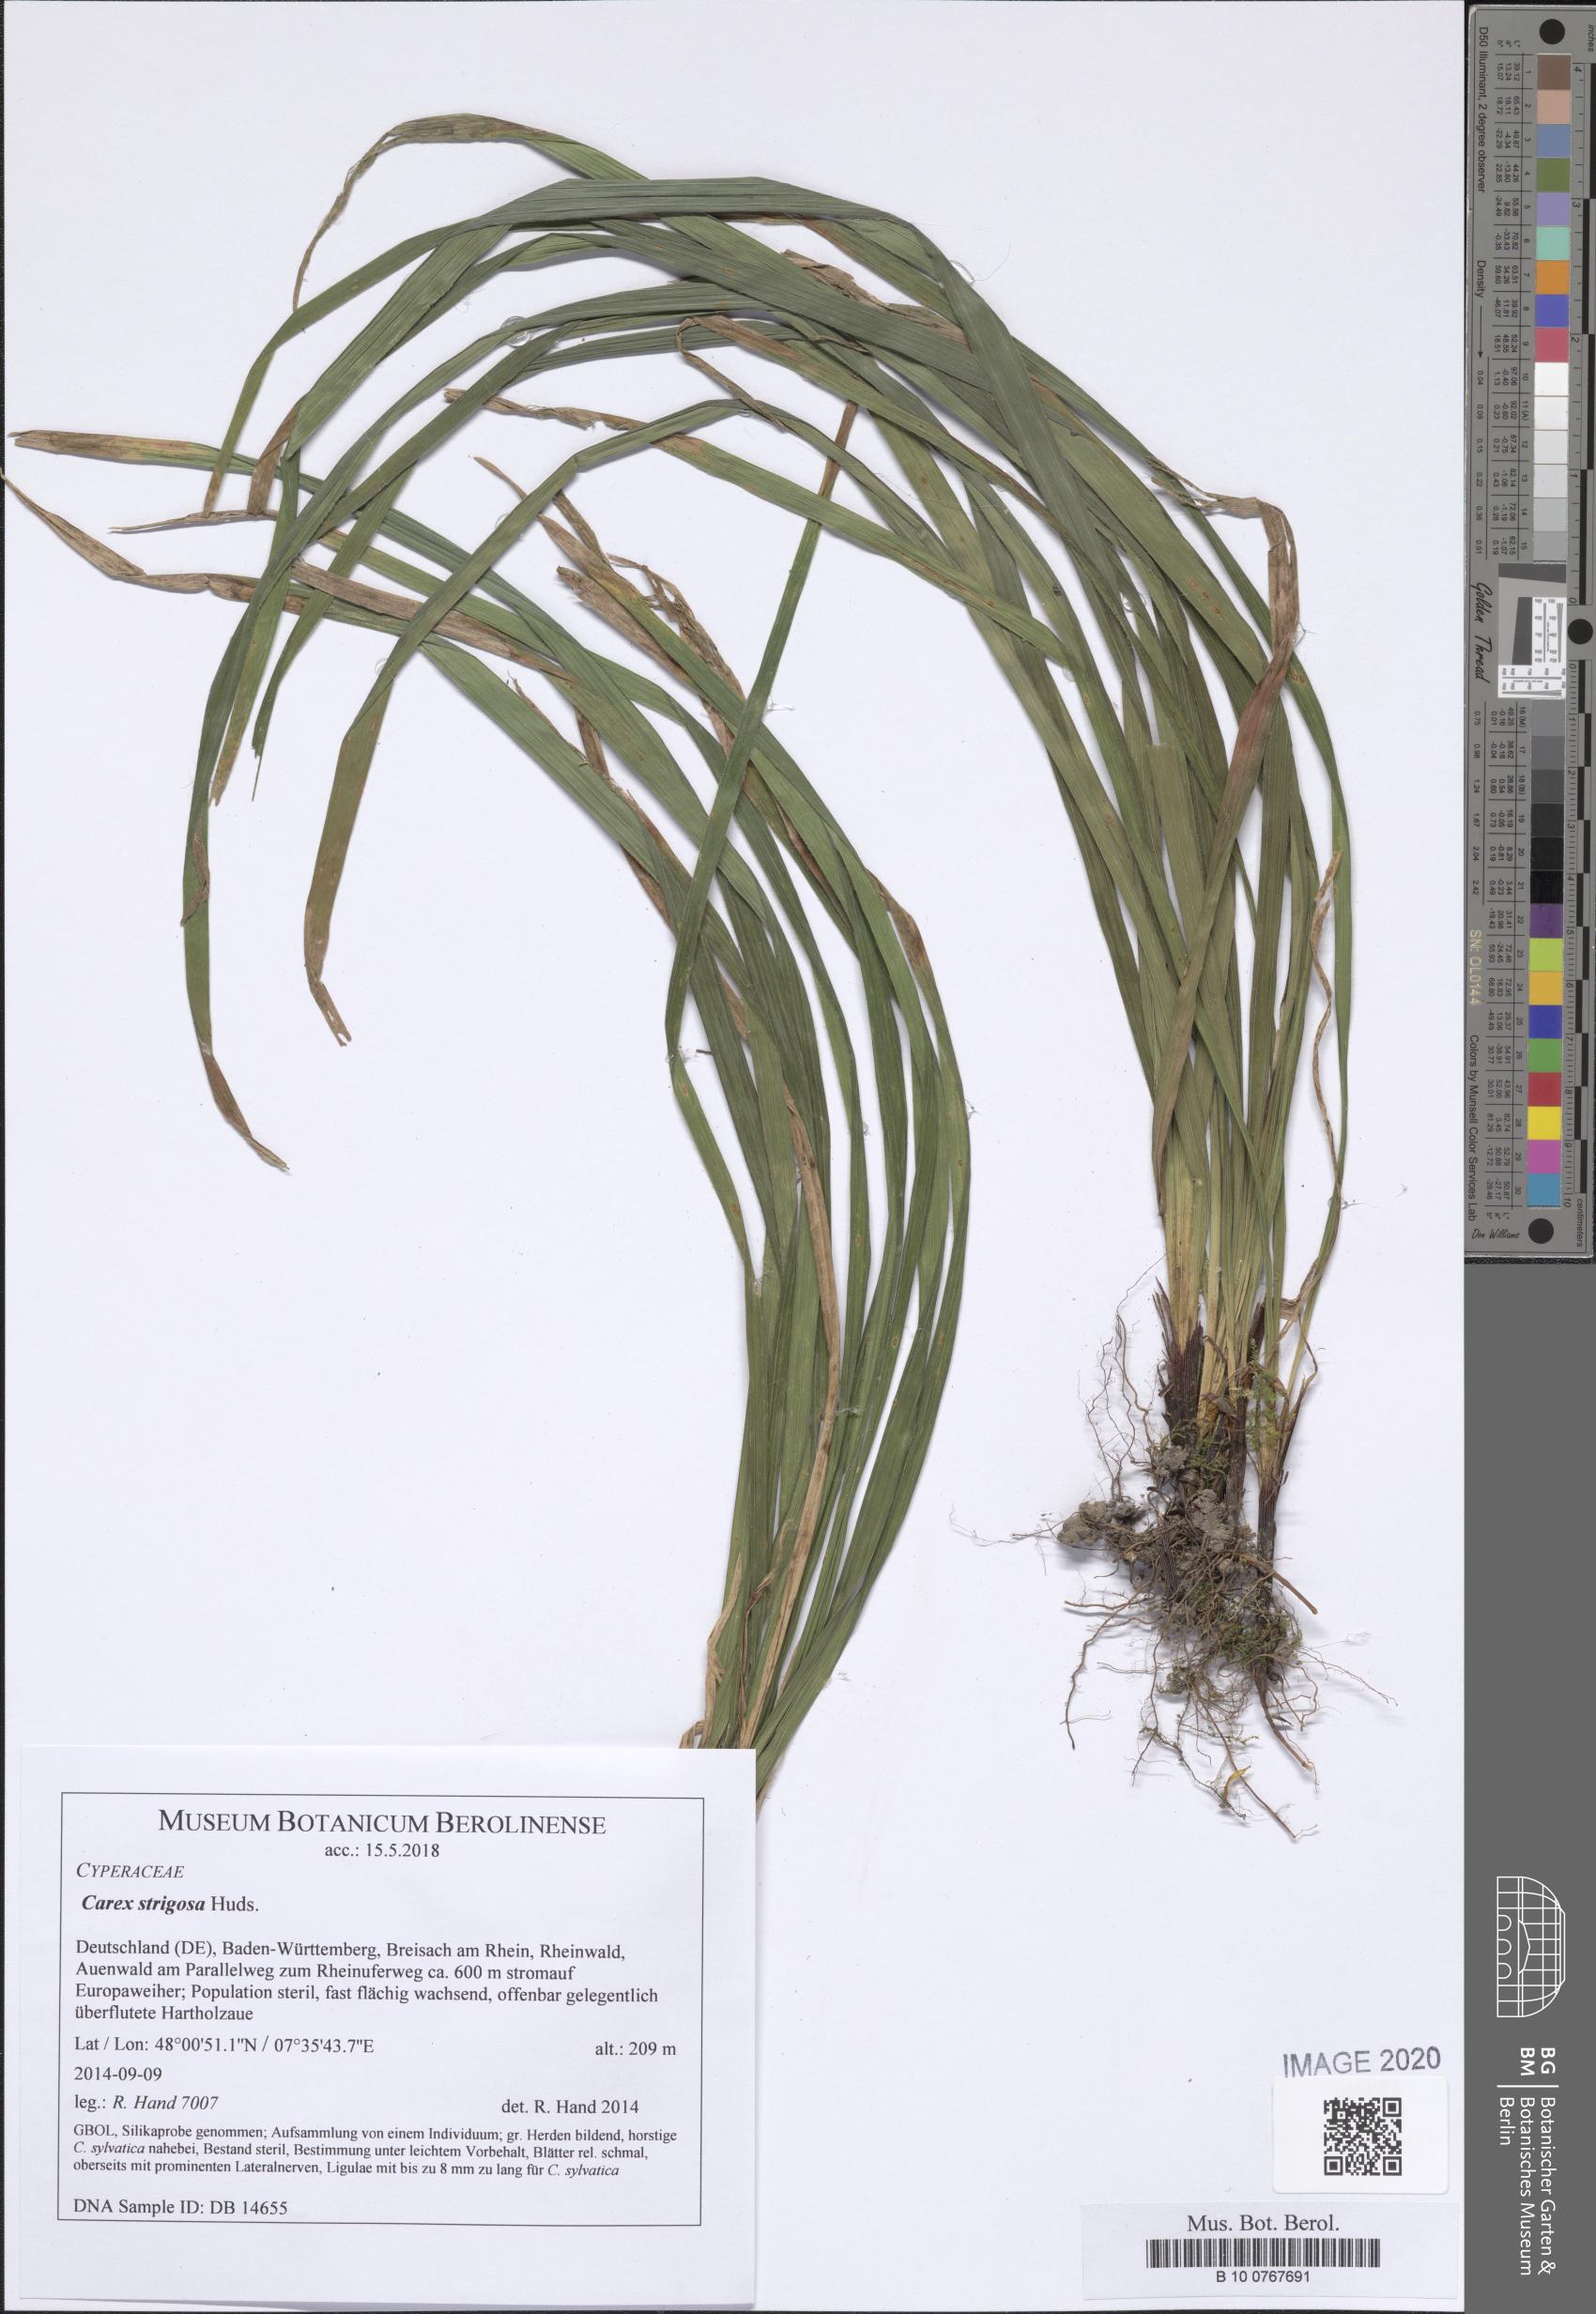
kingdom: Plantae
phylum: Tracheophyta
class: Liliopsida
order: Poales
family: Cyperaceae
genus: Carex
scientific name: Carex strigosa
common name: Thin-spiked wood-sedge
